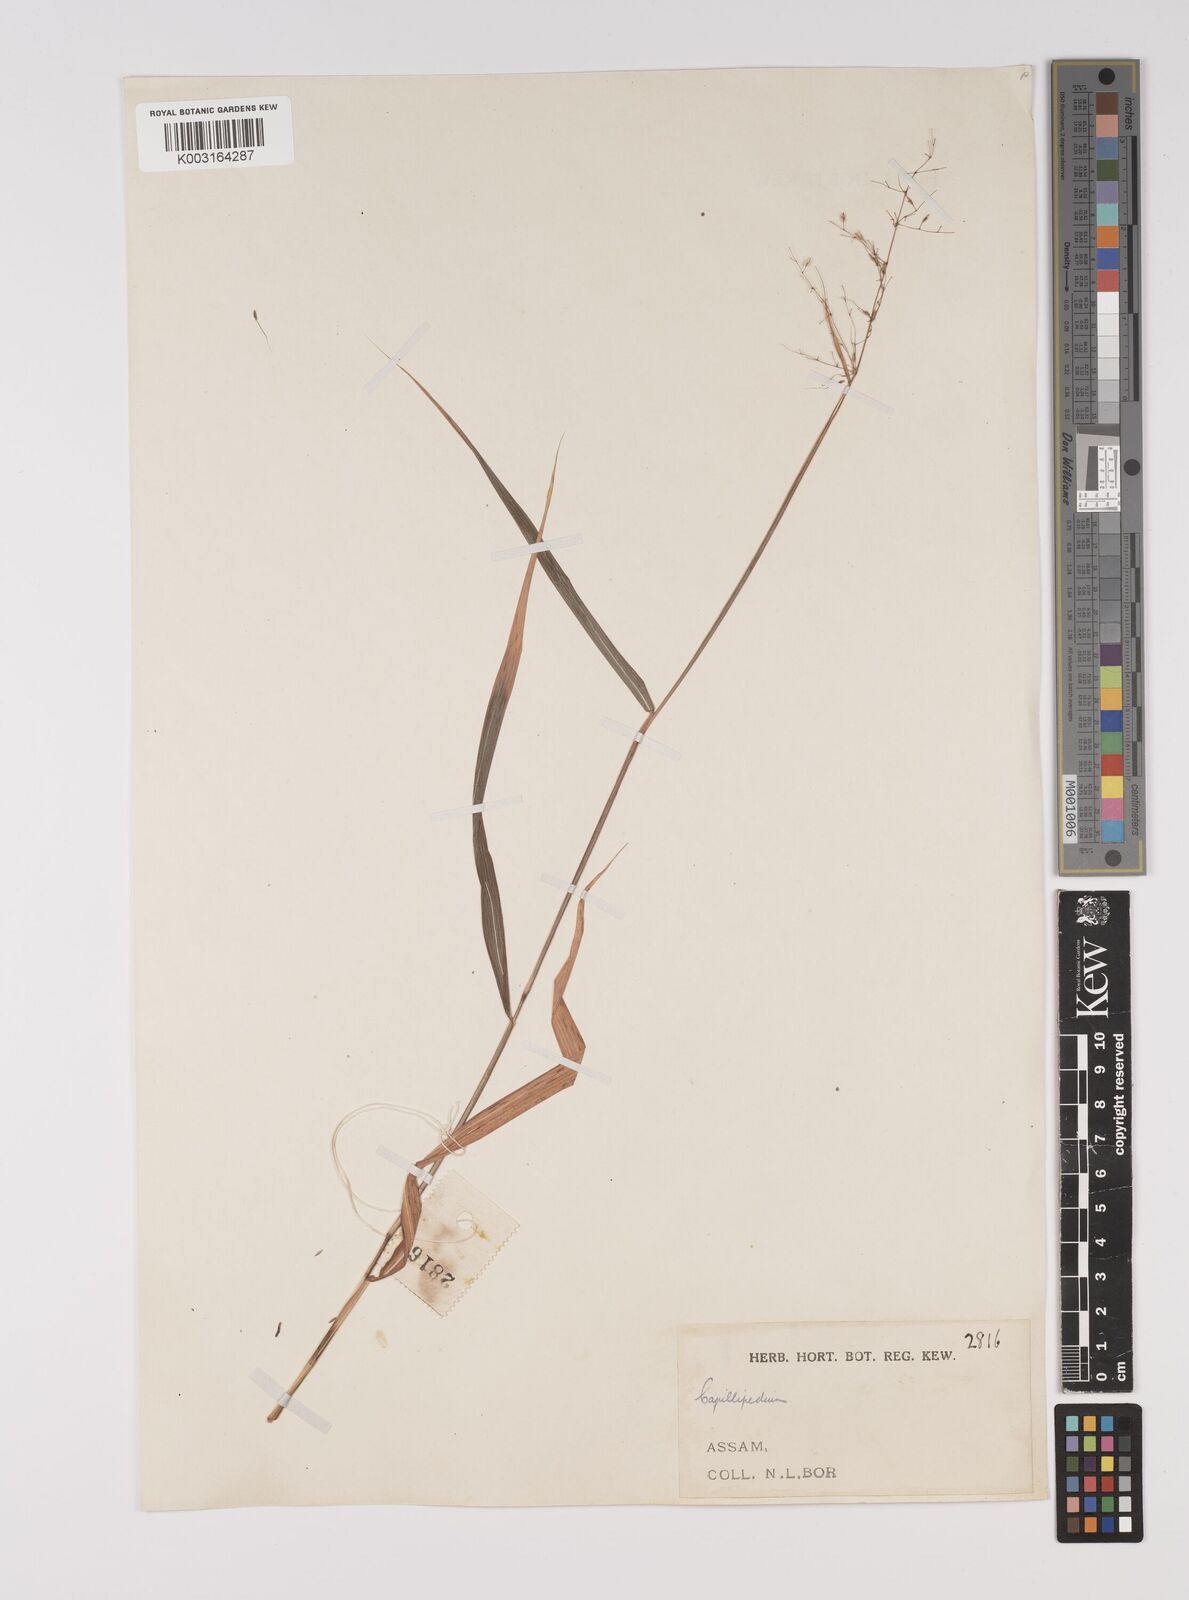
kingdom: Plantae
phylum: Tracheophyta
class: Liliopsida
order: Poales
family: Poaceae
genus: Capillipedium
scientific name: Capillipedium parviflorum
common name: Golden-beard
